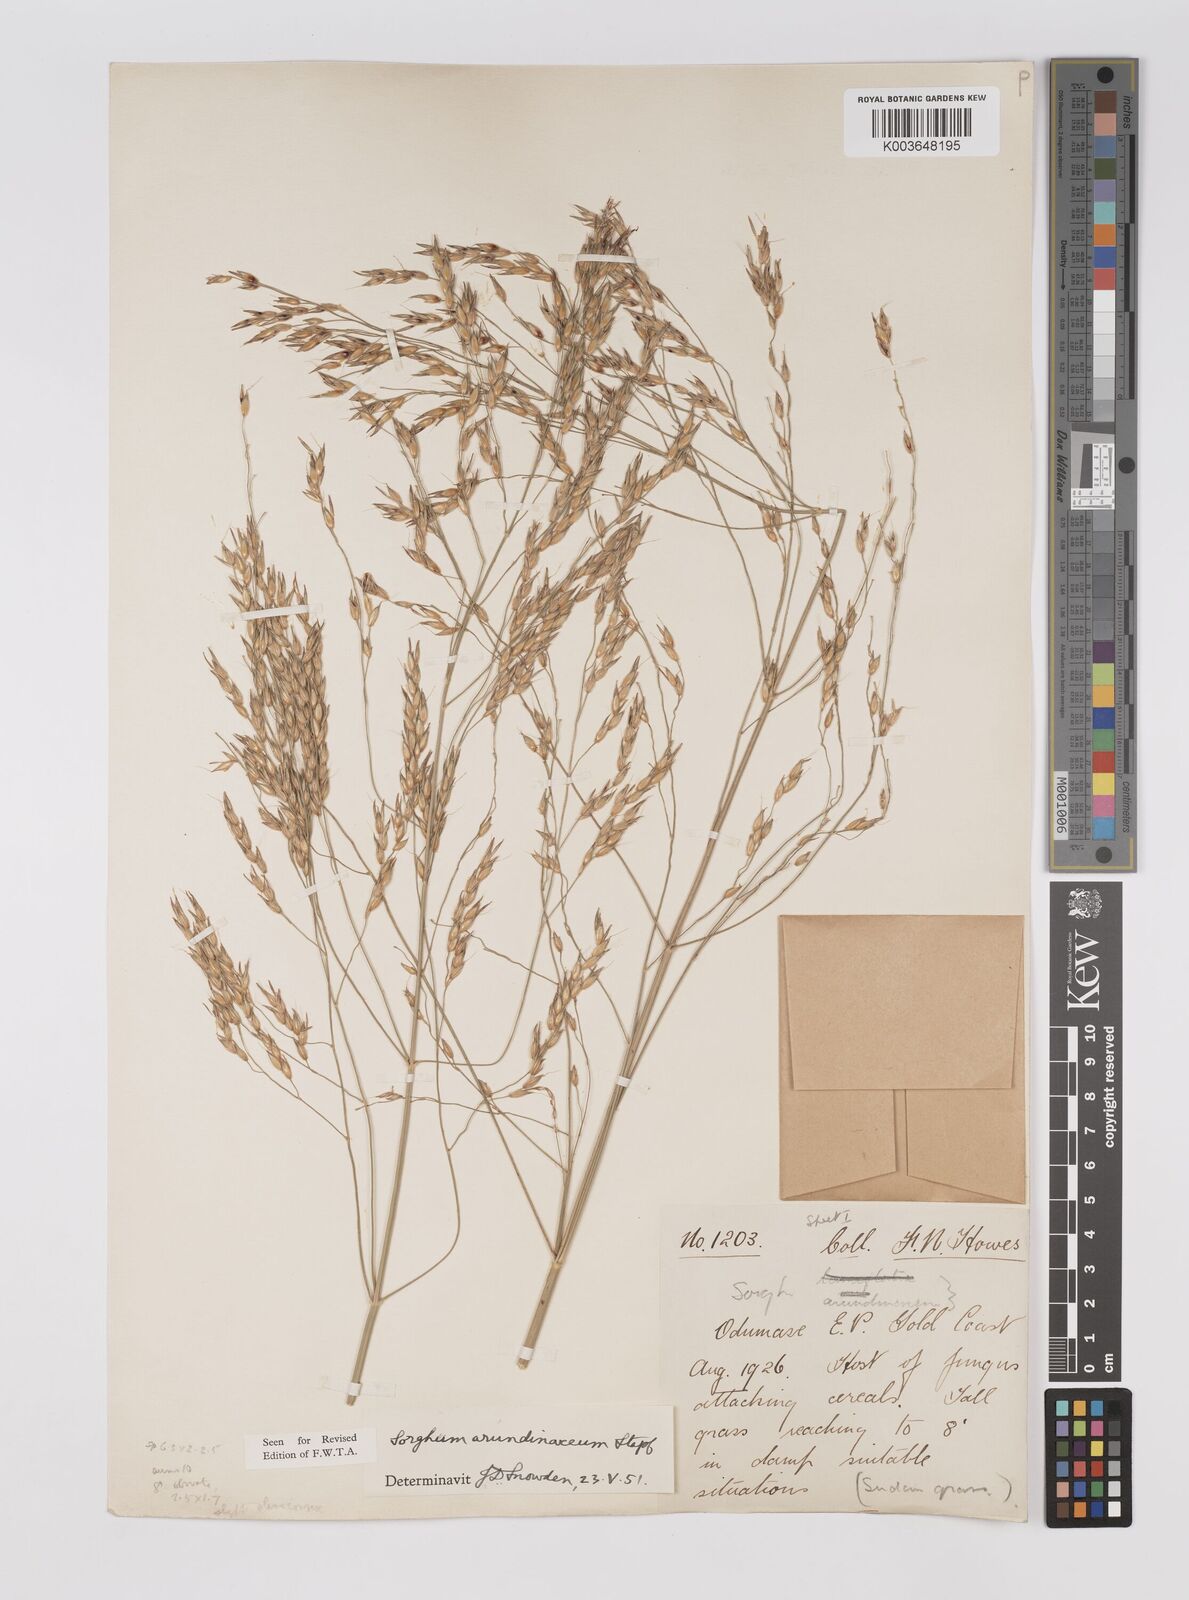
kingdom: Plantae
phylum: Tracheophyta
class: Liliopsida
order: Poales
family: Poaceae
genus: Sorghum
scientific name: Sorghum arundinaceum
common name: Sorghum
